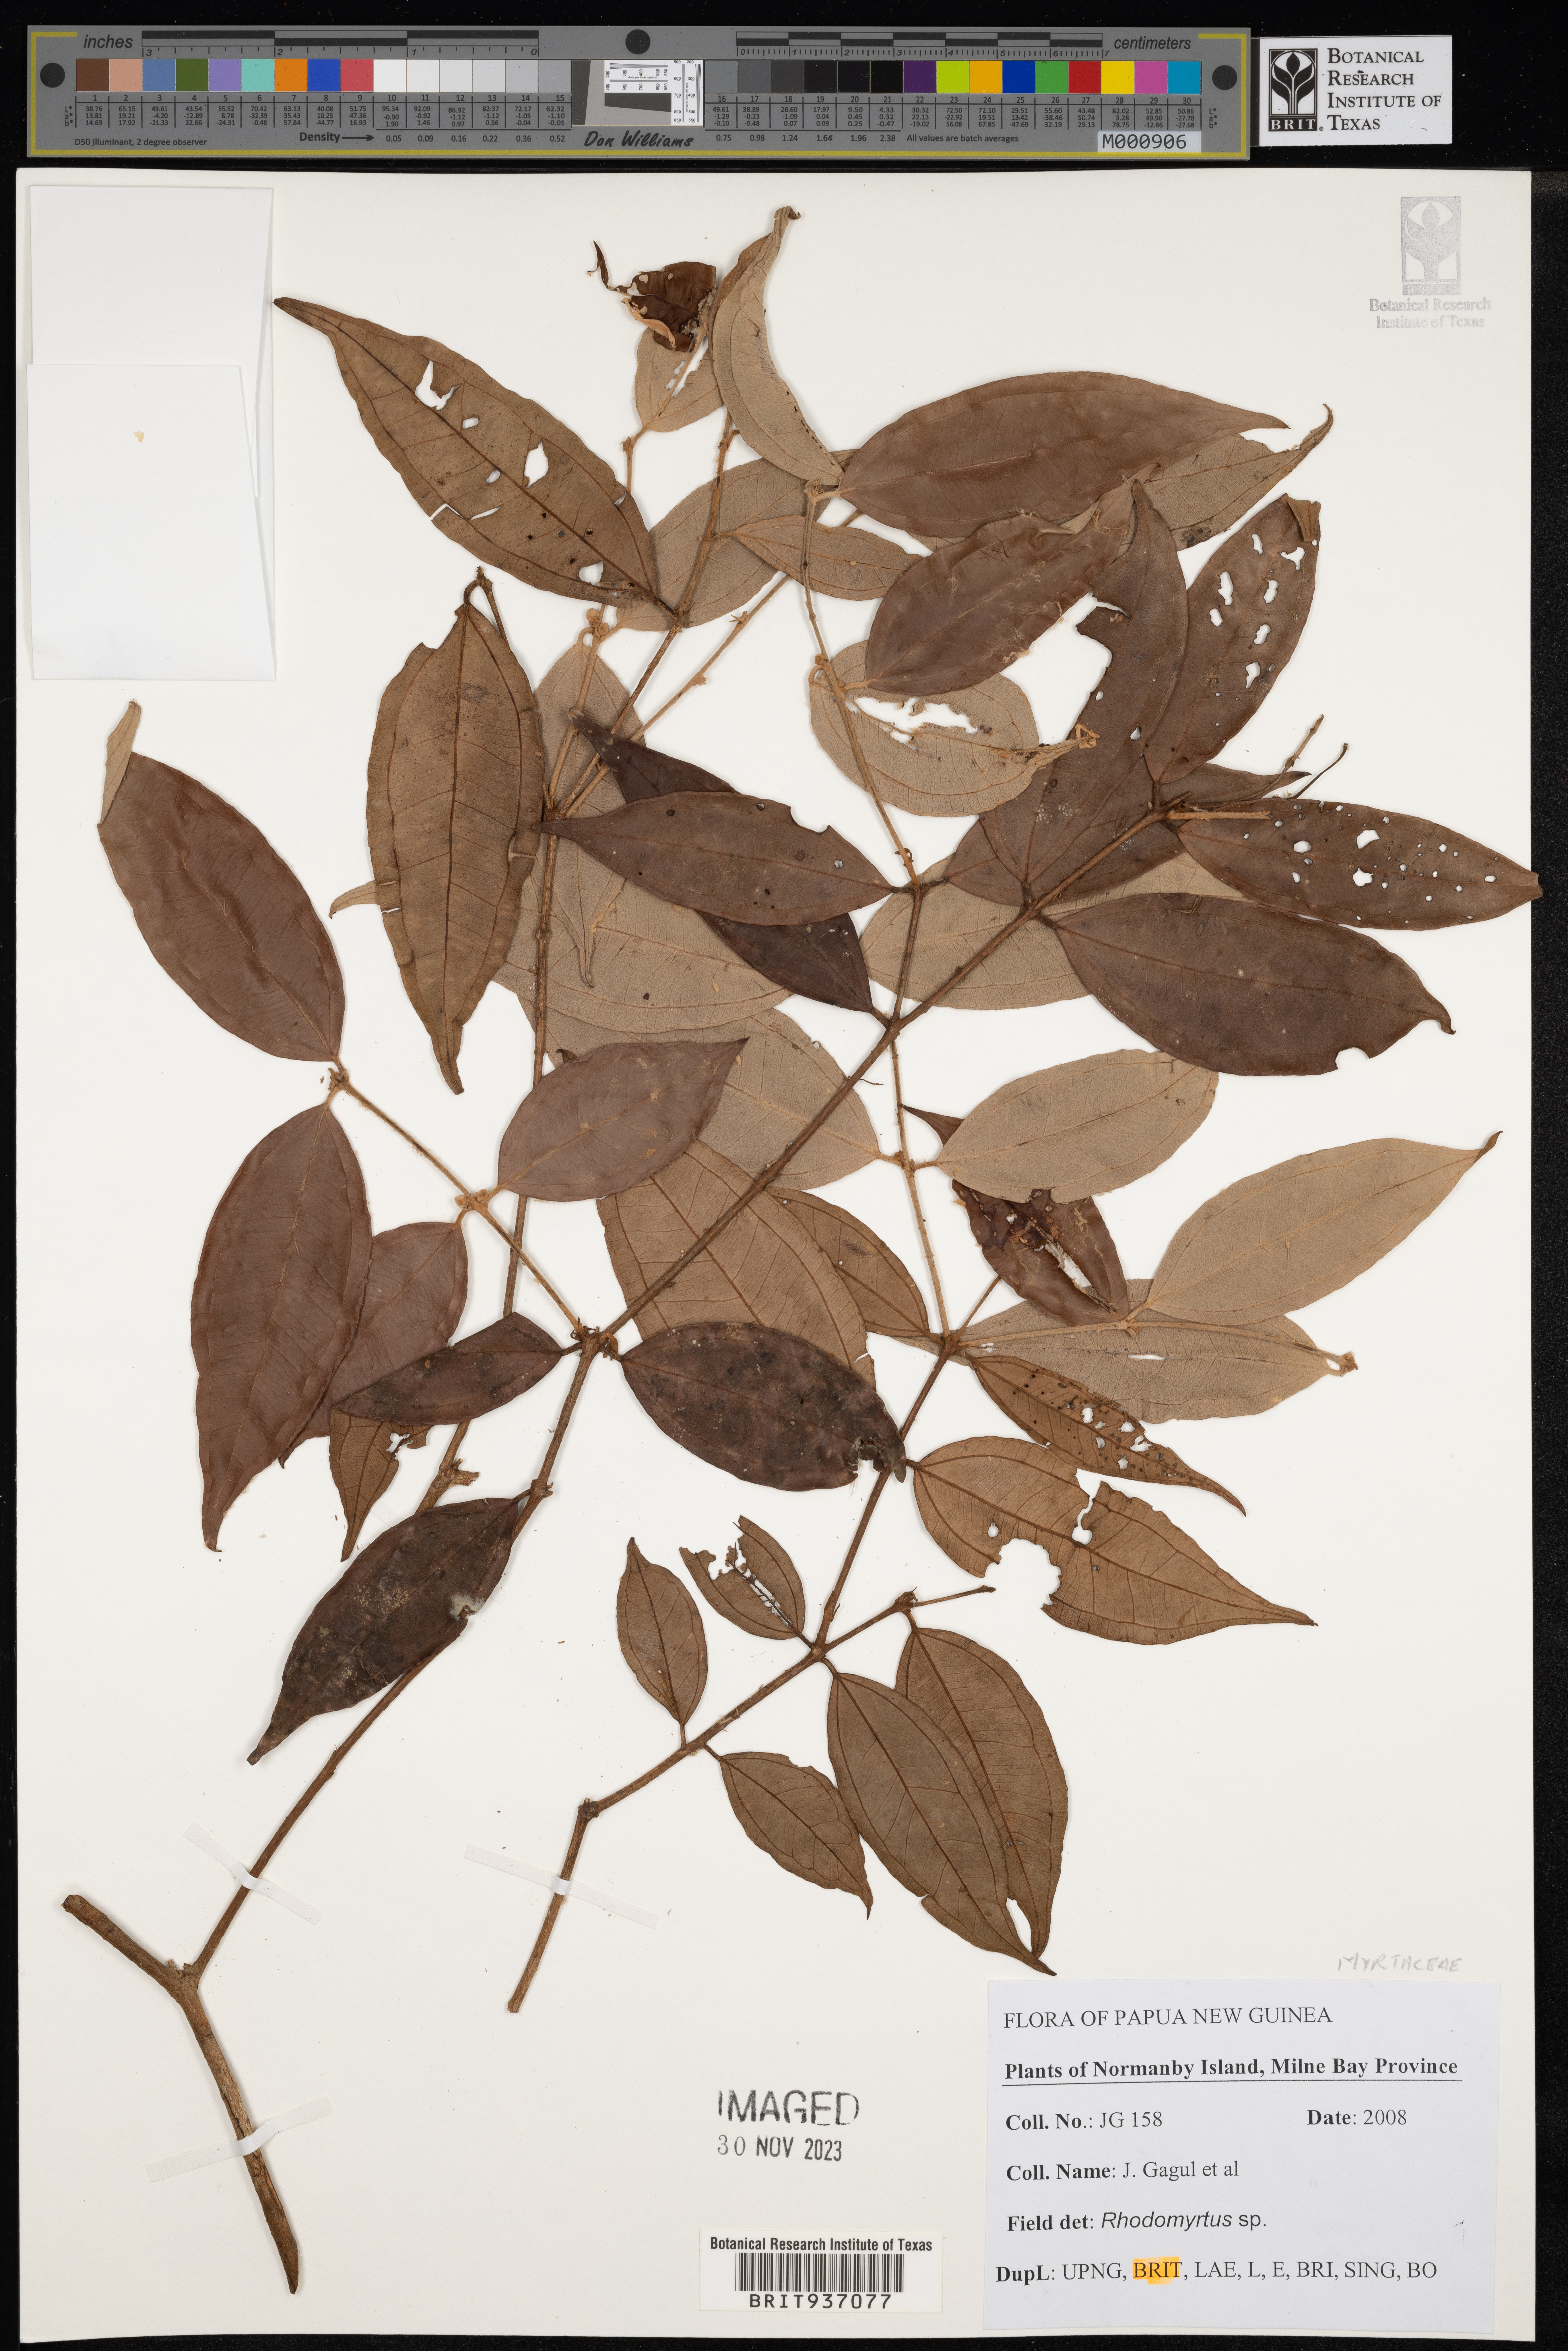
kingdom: Plantae
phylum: Tracheophyta
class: Magnoliopsida
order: Myrtales
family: Myrtaceae
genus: Rhodomyrtus
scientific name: Rhodomyrtus
